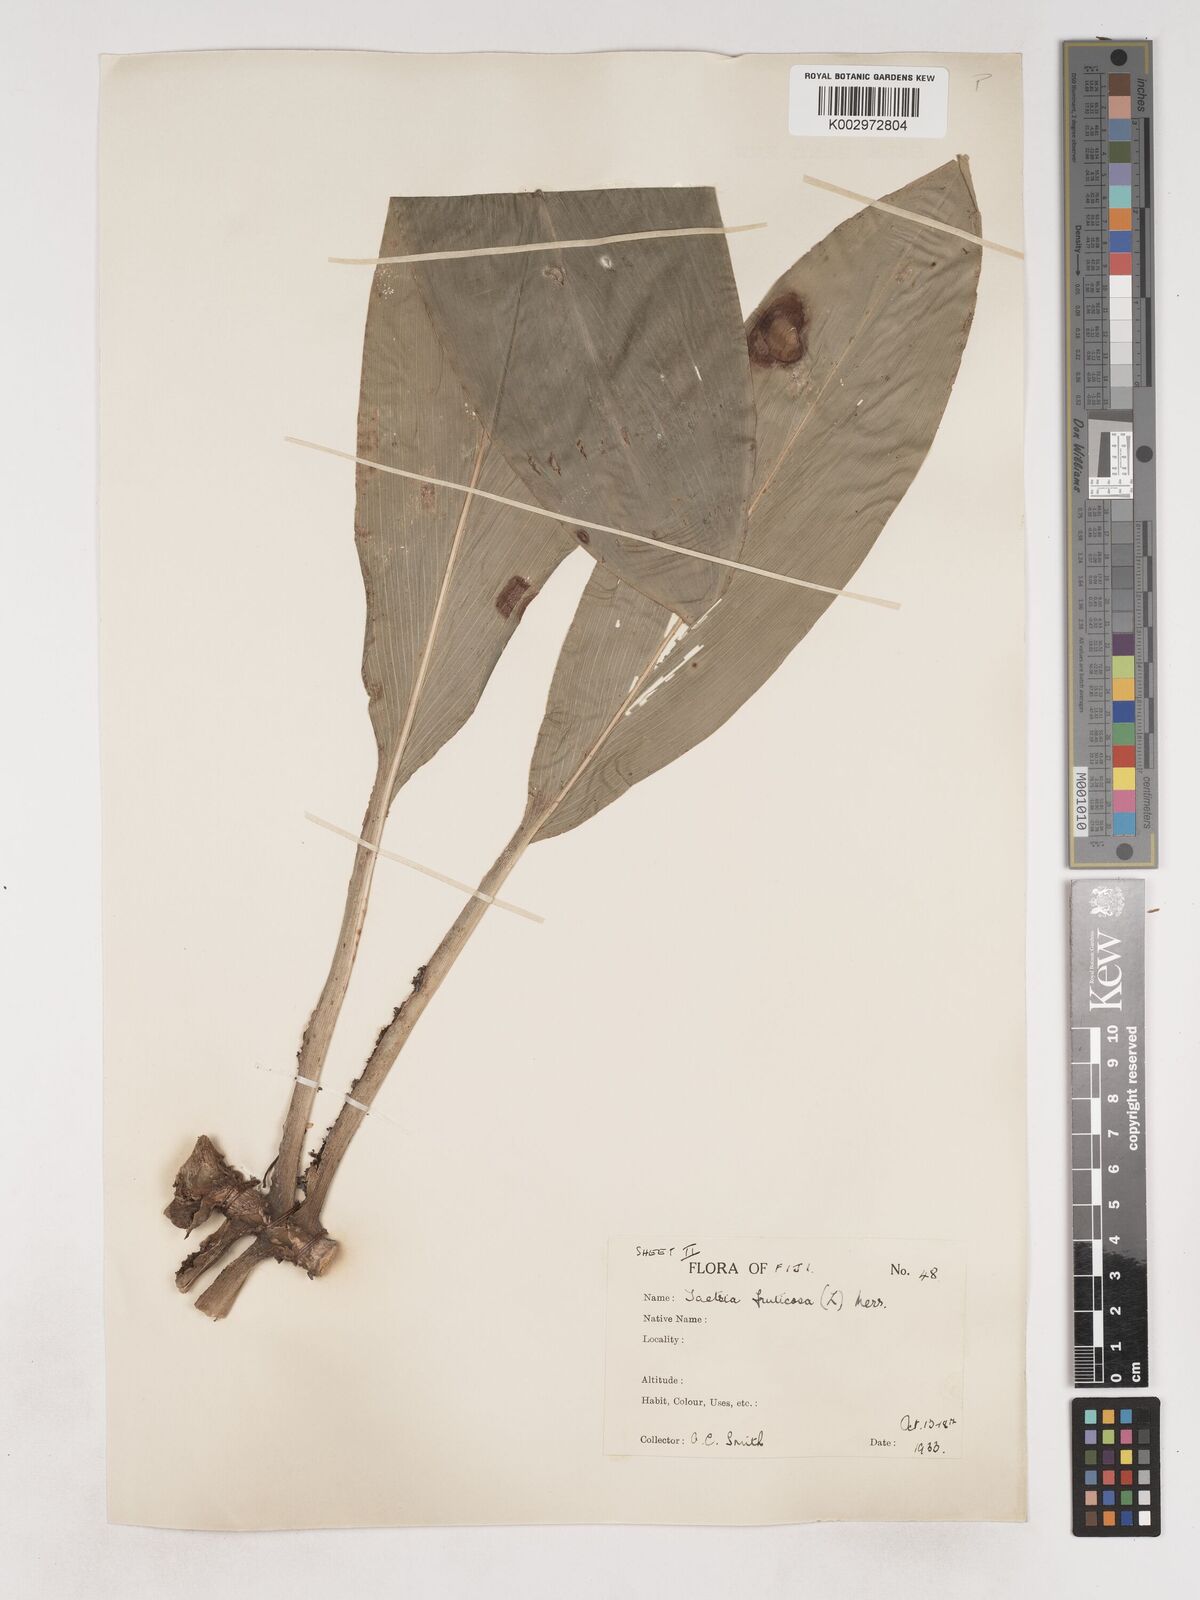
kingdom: Plantae
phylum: Tracheophyta
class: Liliopsida
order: Asparagales
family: Asparagaceae
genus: Cordyline
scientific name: Cordyline fruticosa
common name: Good-luck-plant
